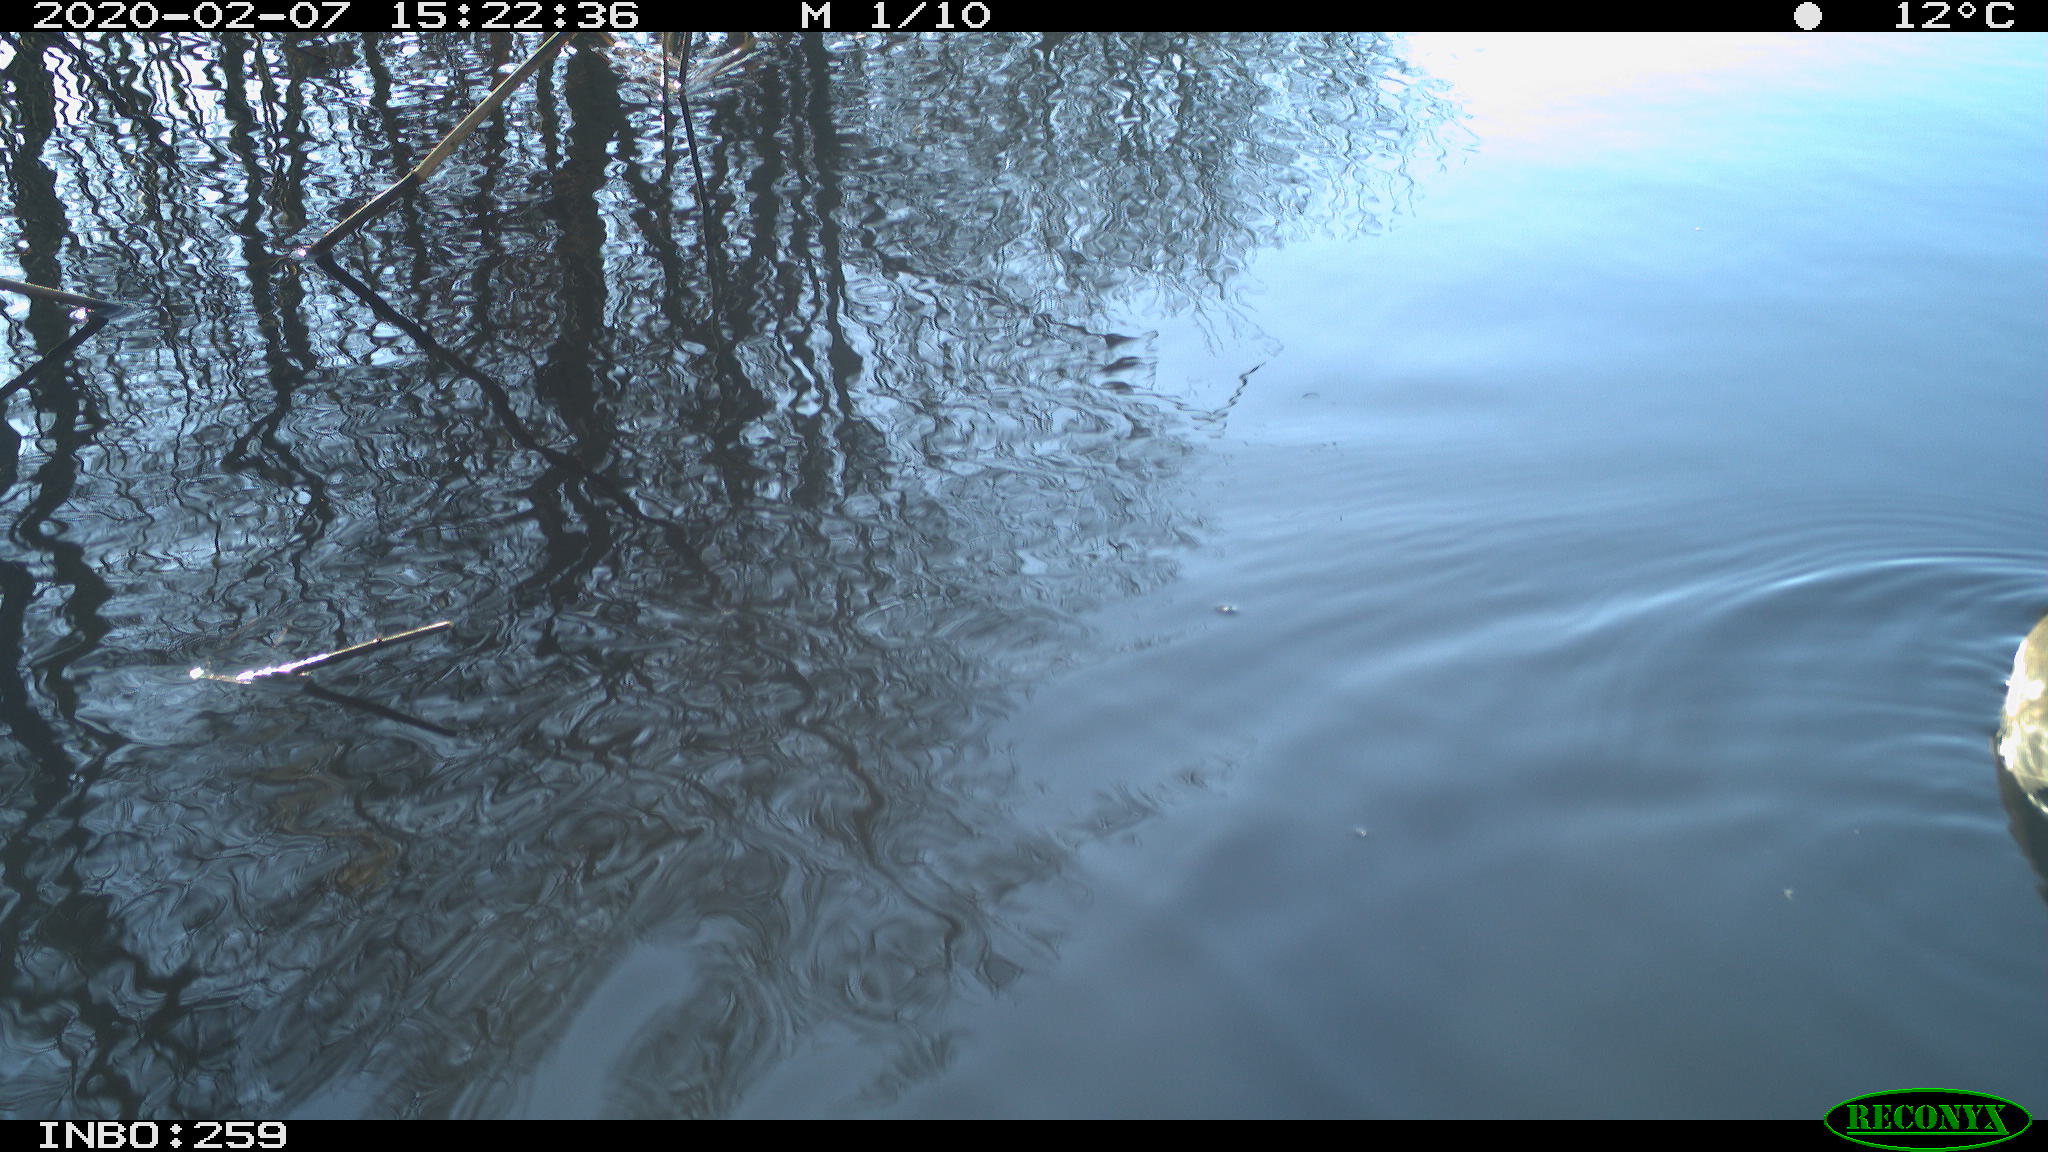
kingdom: Animalia
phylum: Chordata
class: Aves
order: Gruiformes
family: Rallidae
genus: Gallinula
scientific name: Gallinula chloropus
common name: Common moorhen
